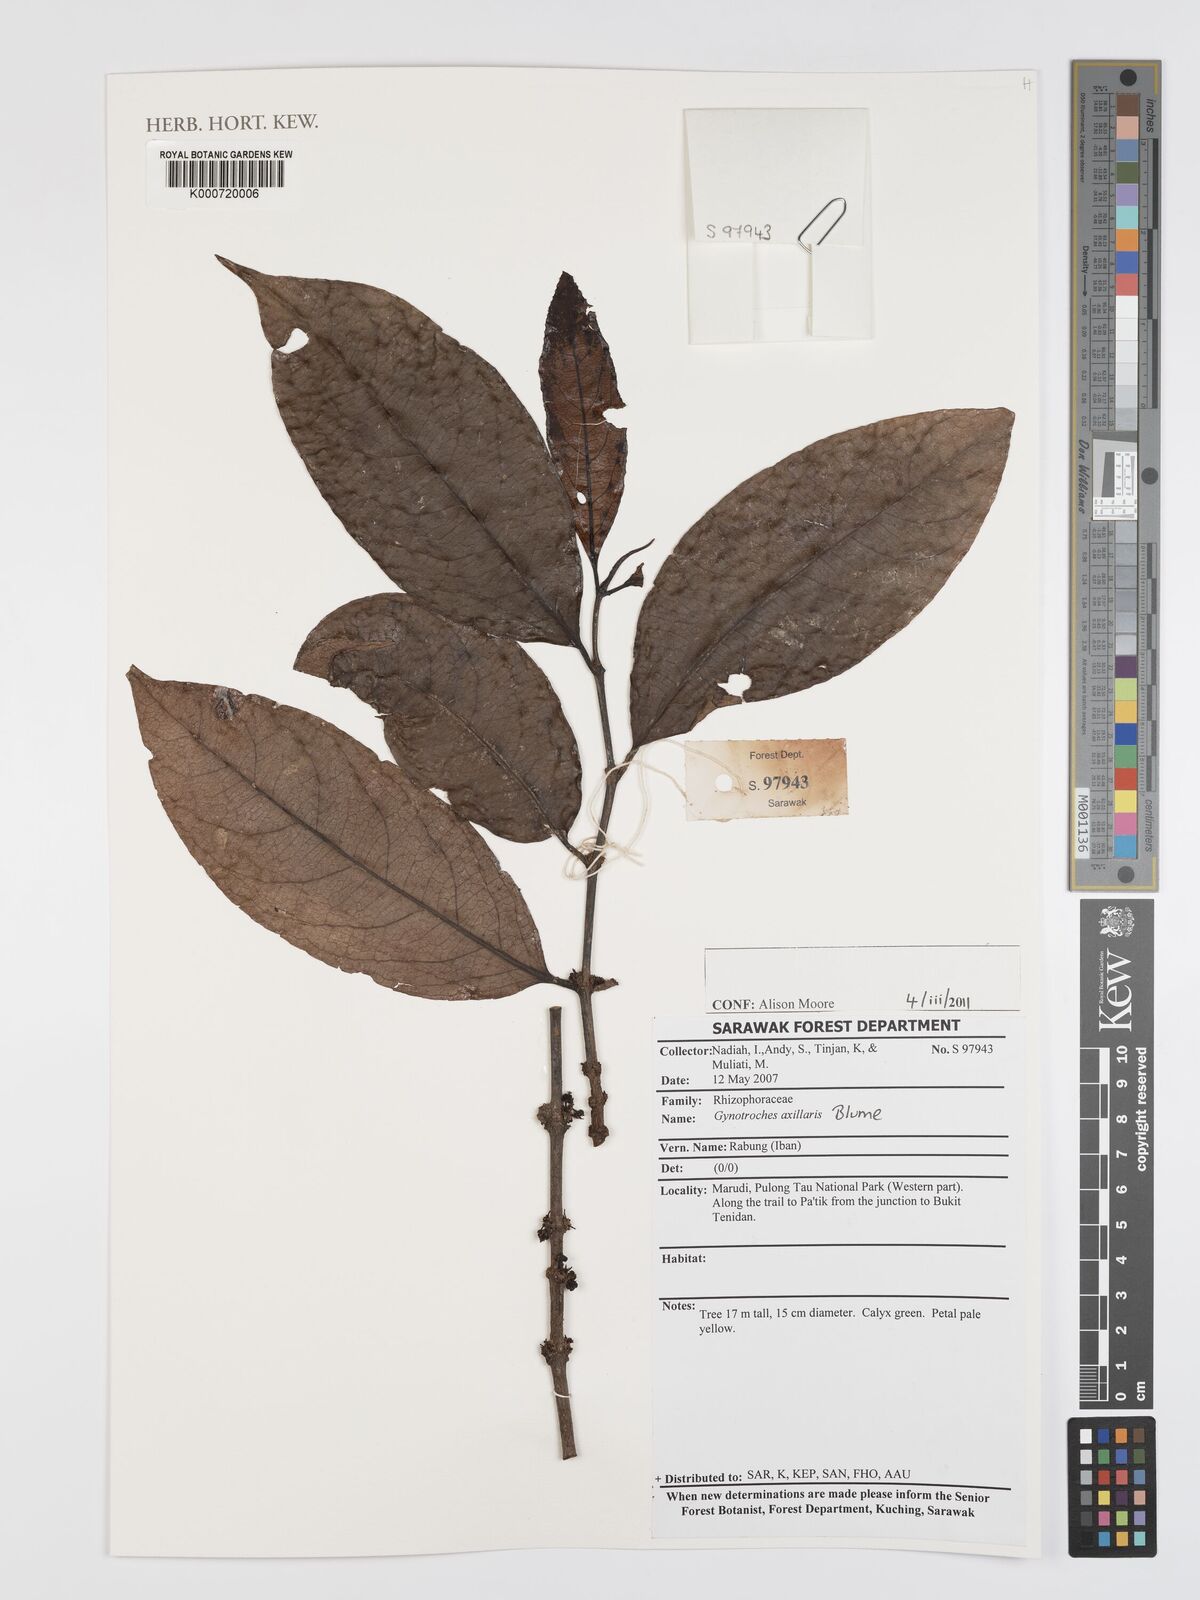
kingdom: Plantae
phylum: Tracheophyta
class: Magnoliopsida
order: Malpighiales
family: Rhizophoraceae
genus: Gynotroches
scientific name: Gynotroches axillaris
